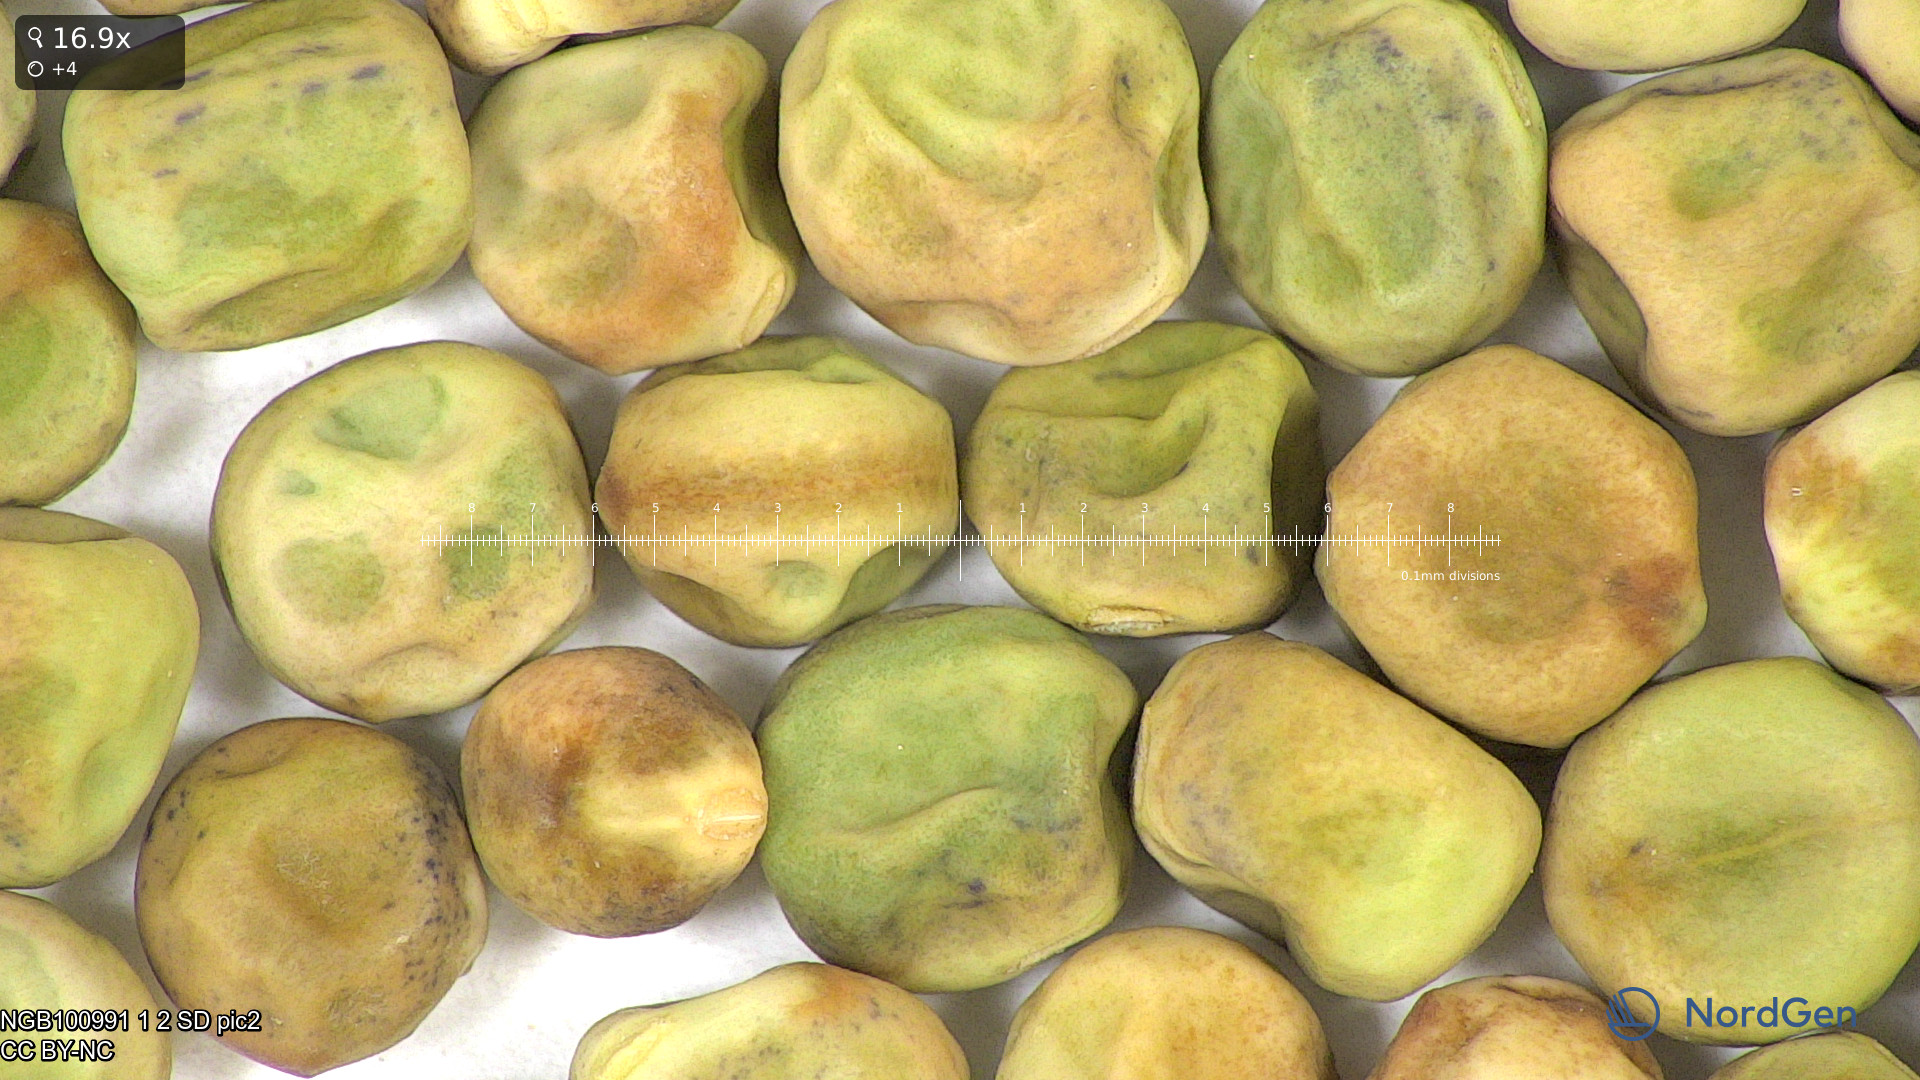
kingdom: Plantae
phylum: Tracheophyta
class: Magnoliopsida
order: Fabales
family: Fabaceae
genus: Lathyrus
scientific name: Lathyrus oleraceus
